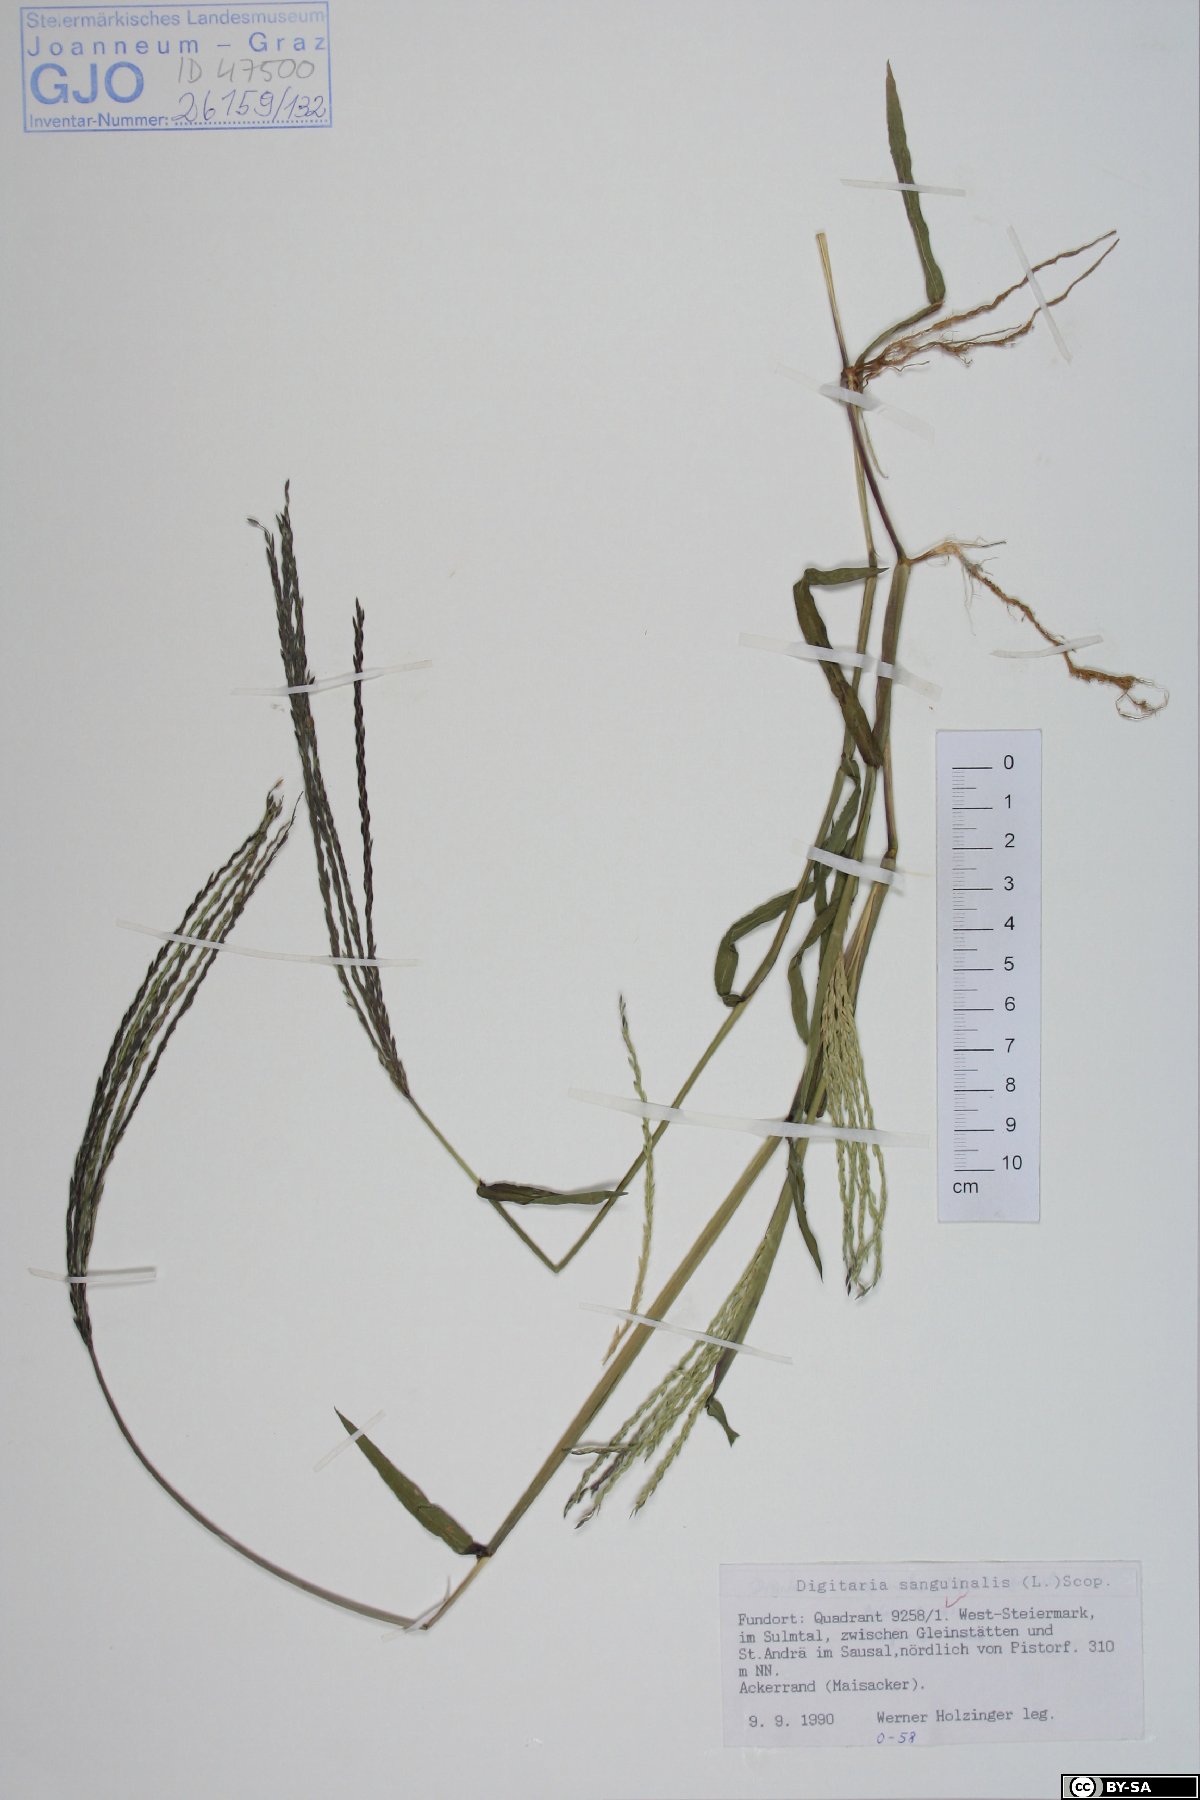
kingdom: Plantae
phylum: Tracheophyta
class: Liliopsida
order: Poales
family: Poaceae
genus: Digitaria
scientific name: Digitaria sanguinalis
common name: Hairy crabgrass
